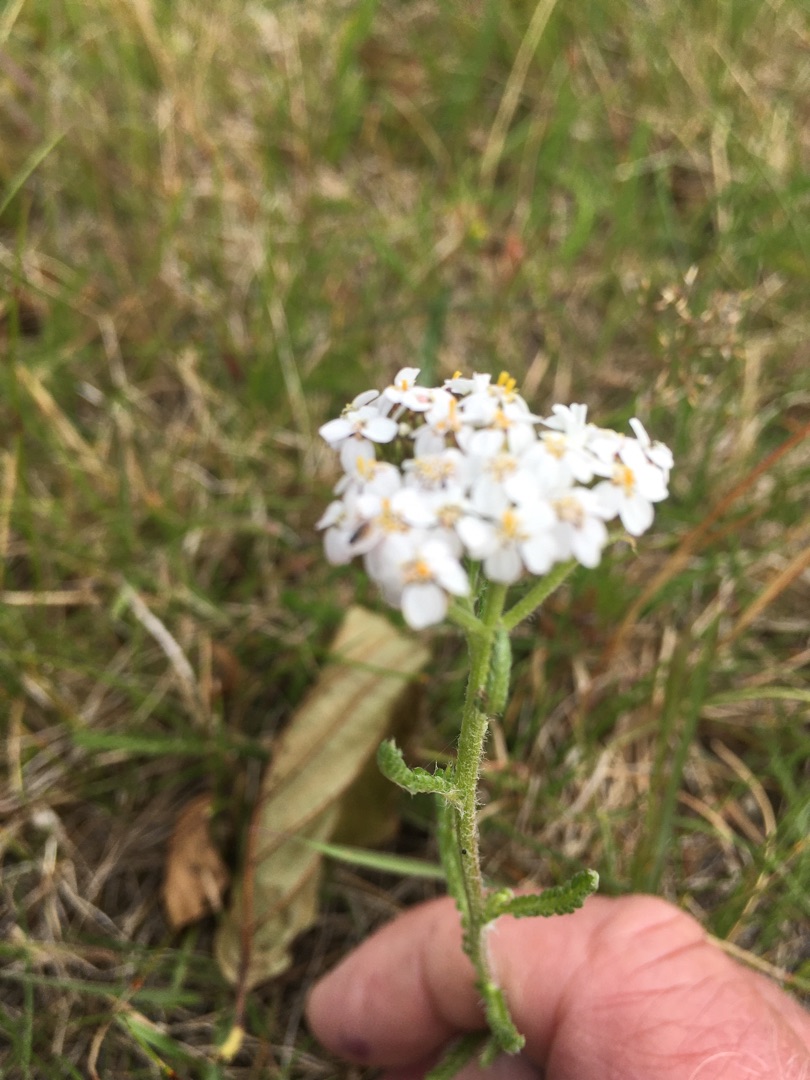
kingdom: Plantae
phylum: Tracheophyta
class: Magnoliopsida
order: Asterales
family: Asteraceae
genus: Achillea
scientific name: Achillea millefolium
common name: Almindelig røllike
